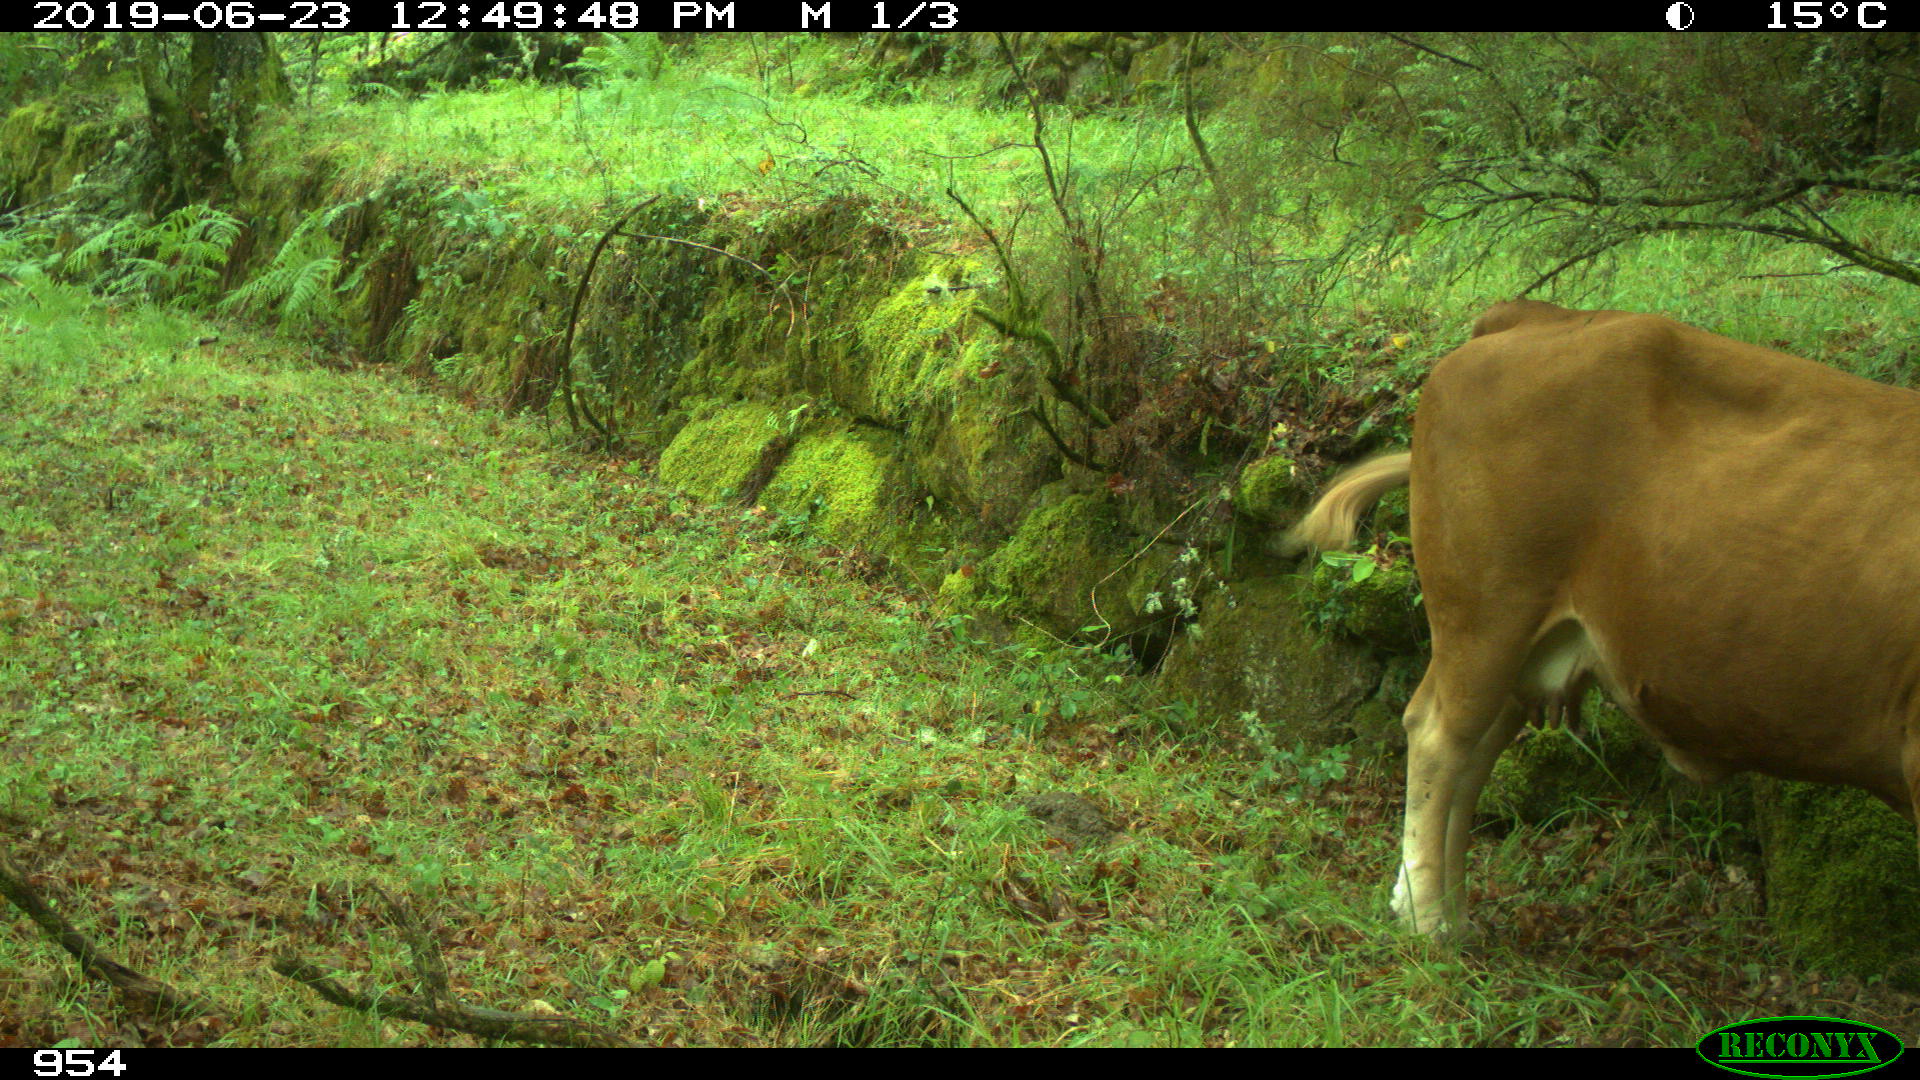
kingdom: Animalia
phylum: Chordata
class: Mammalia
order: Artiodactyla
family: Bovidae
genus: Bos
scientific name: Bos taurus
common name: Domesticated cattle
